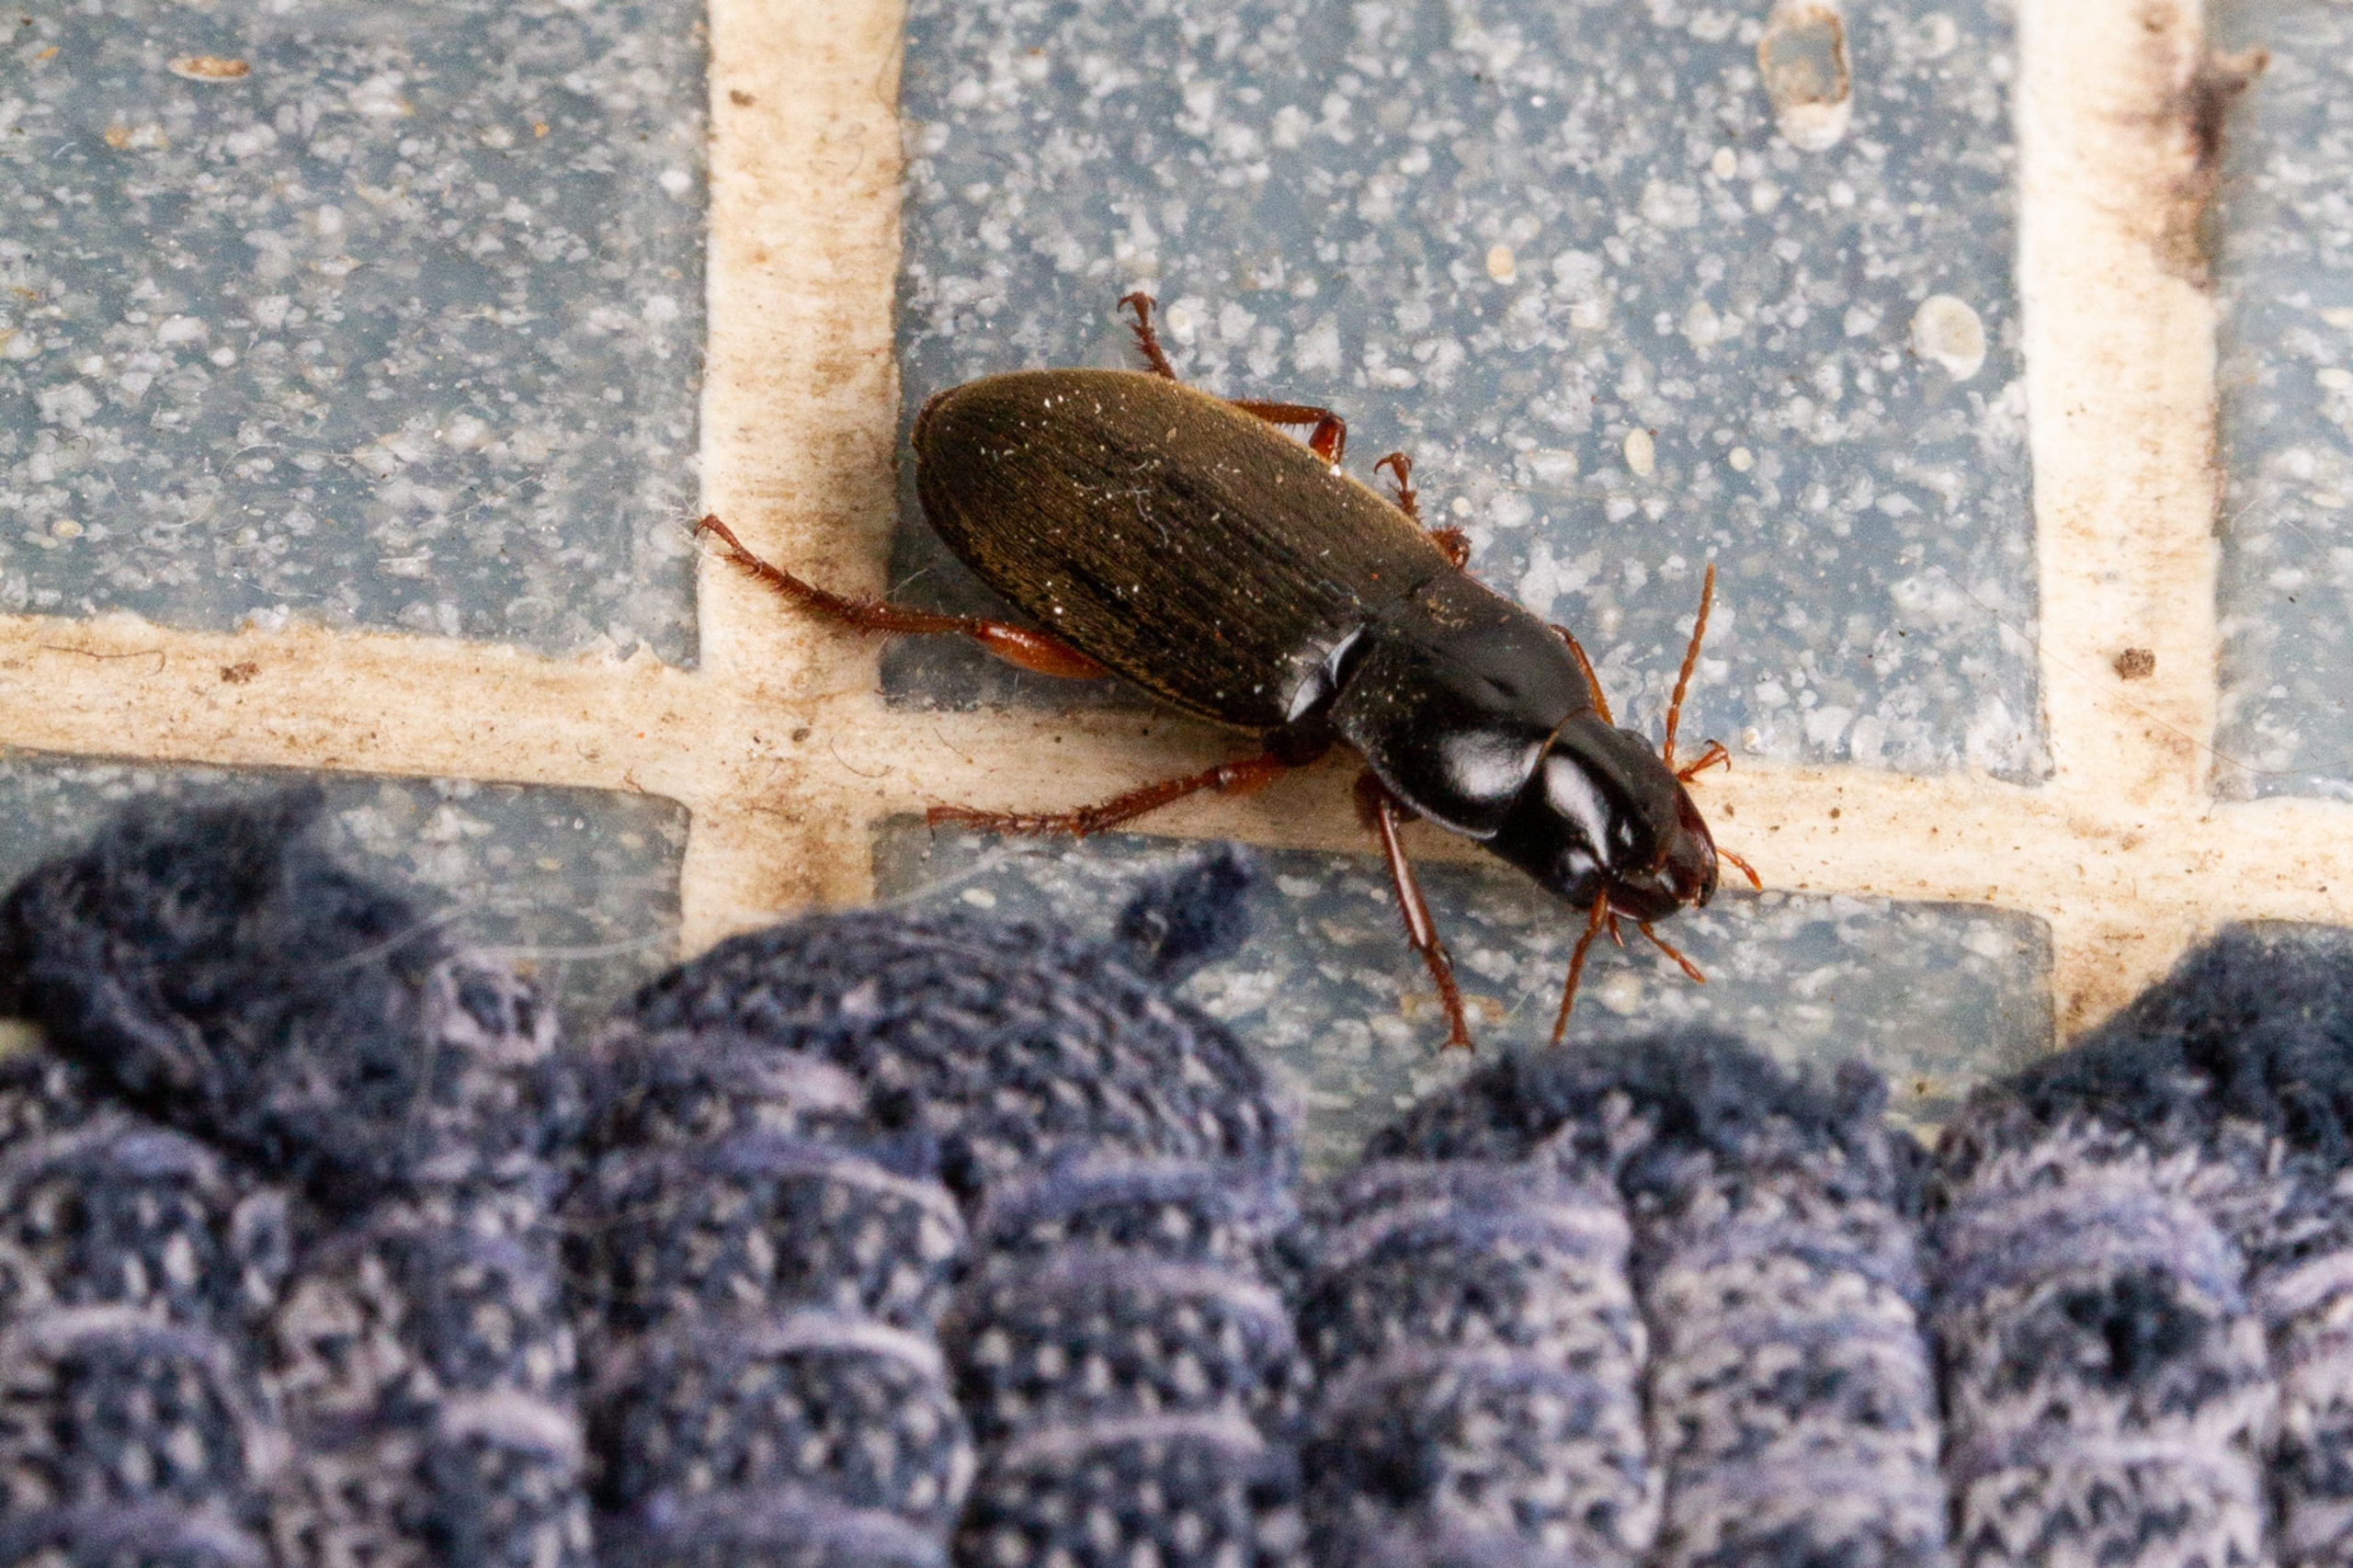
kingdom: Animalia
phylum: Arthropoda
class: Insecta
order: Coleoptera
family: Carabidae
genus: Harpalus
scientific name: Harpalus rufipes
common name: Håret markløber
